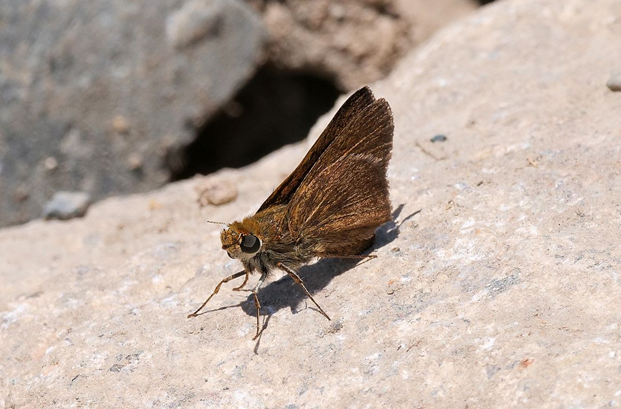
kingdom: Animalia
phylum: Arthropoda
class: Insecta
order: Lepidoptera
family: Hesperiidae
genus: Euphyes
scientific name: Euphyes vestris
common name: Dun Skipper
